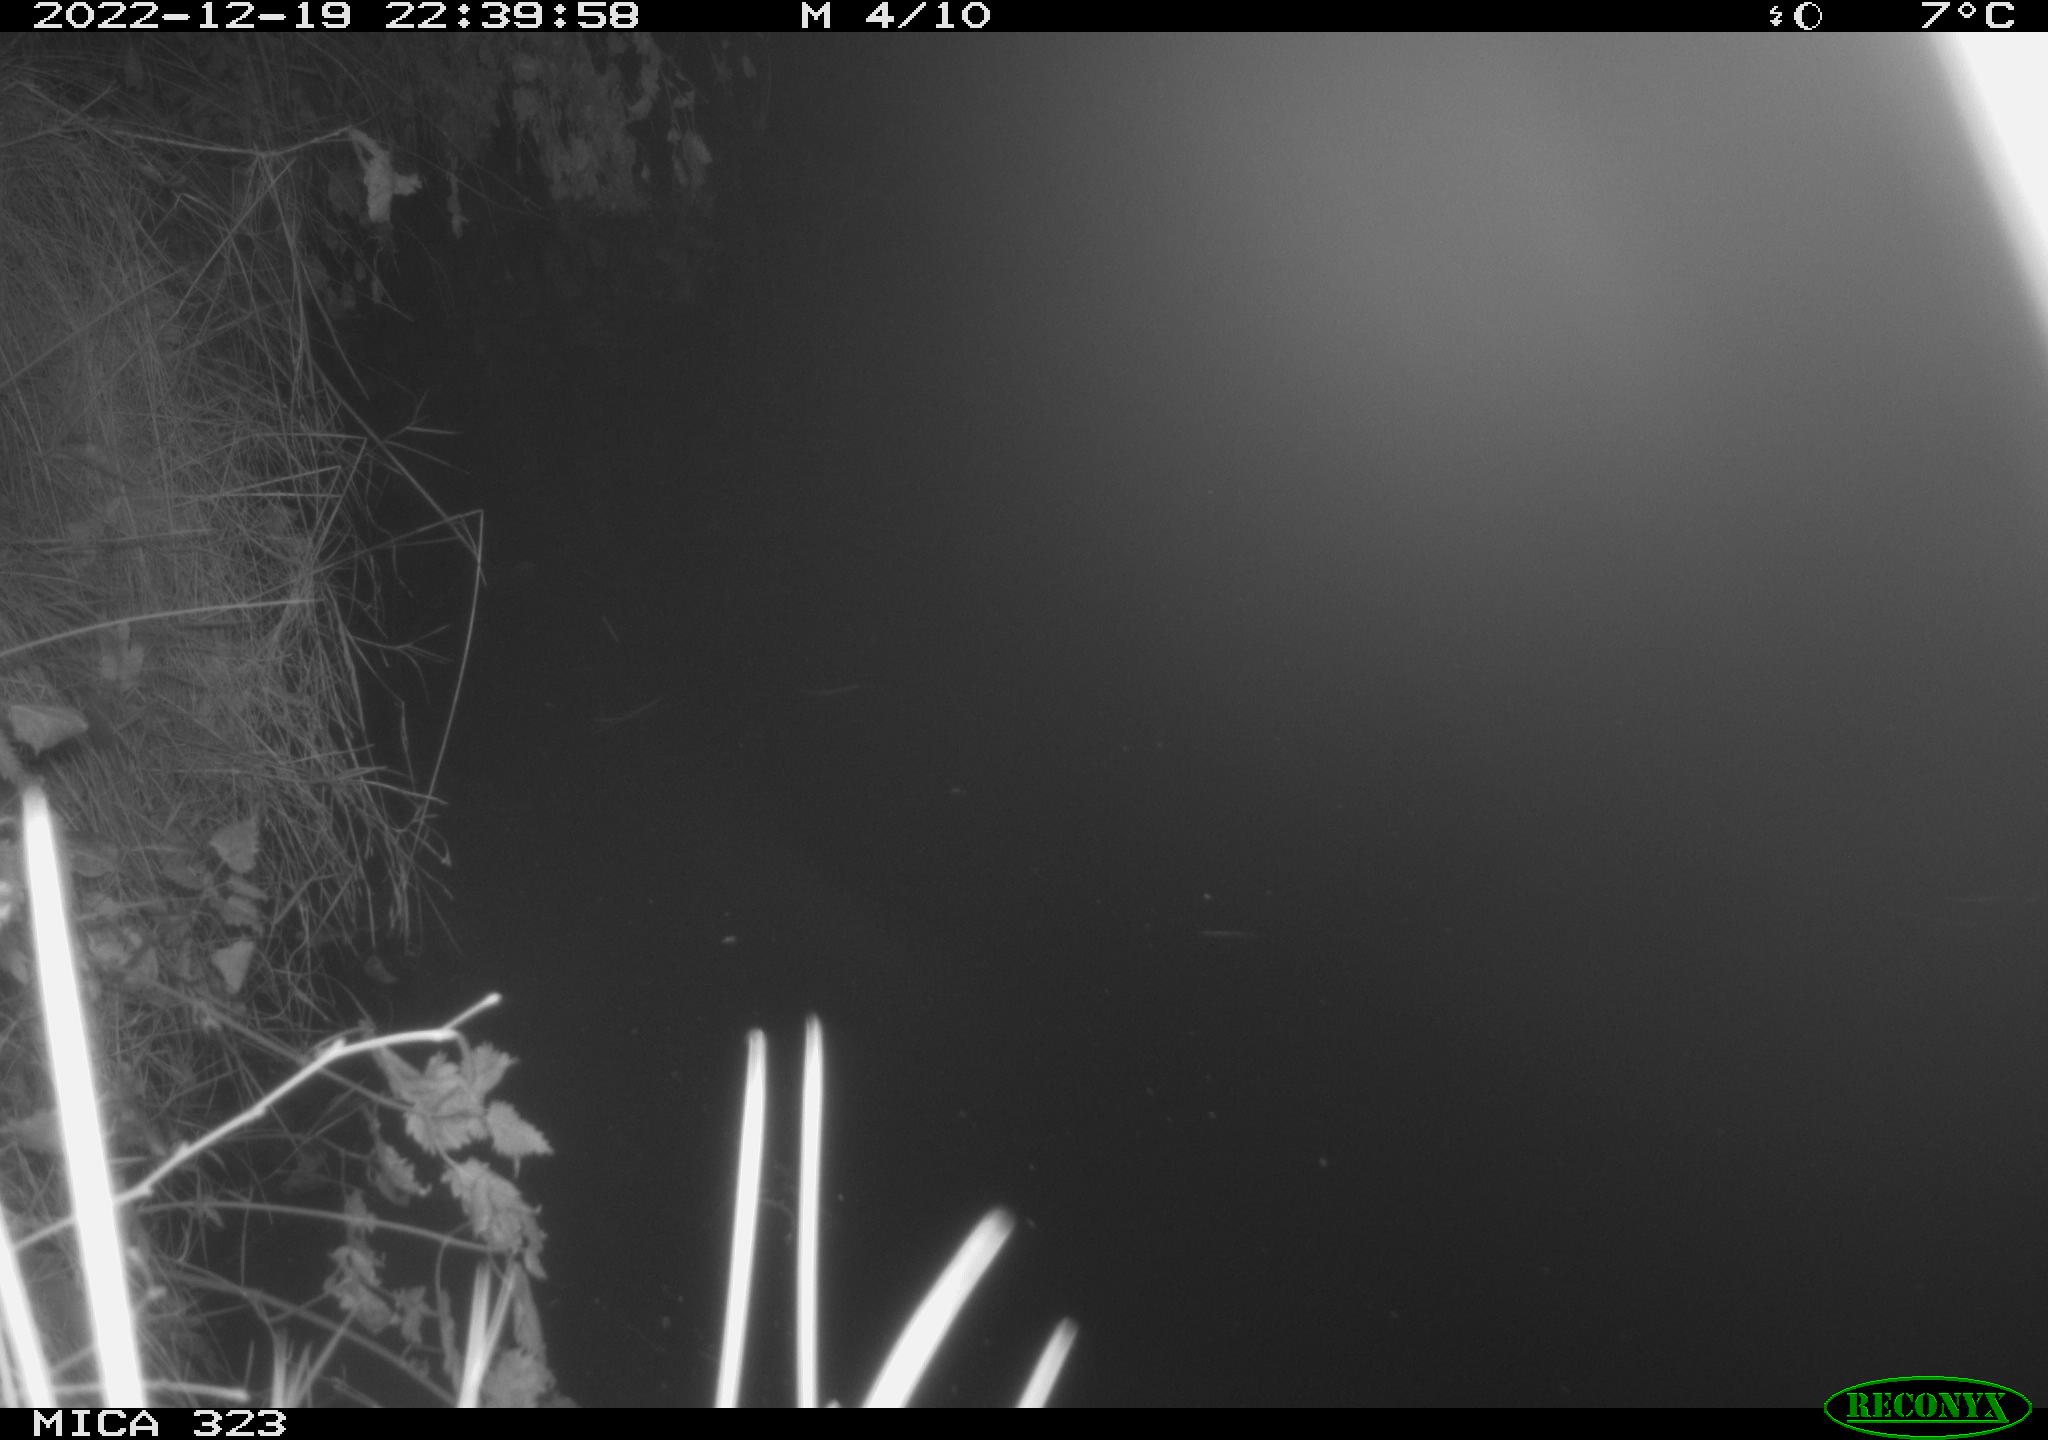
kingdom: Animalia
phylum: Chordata
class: Mammalia
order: Rodentia
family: Cricetidae
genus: Ondatra
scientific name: Ondatra zibethicus
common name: Muskrat
